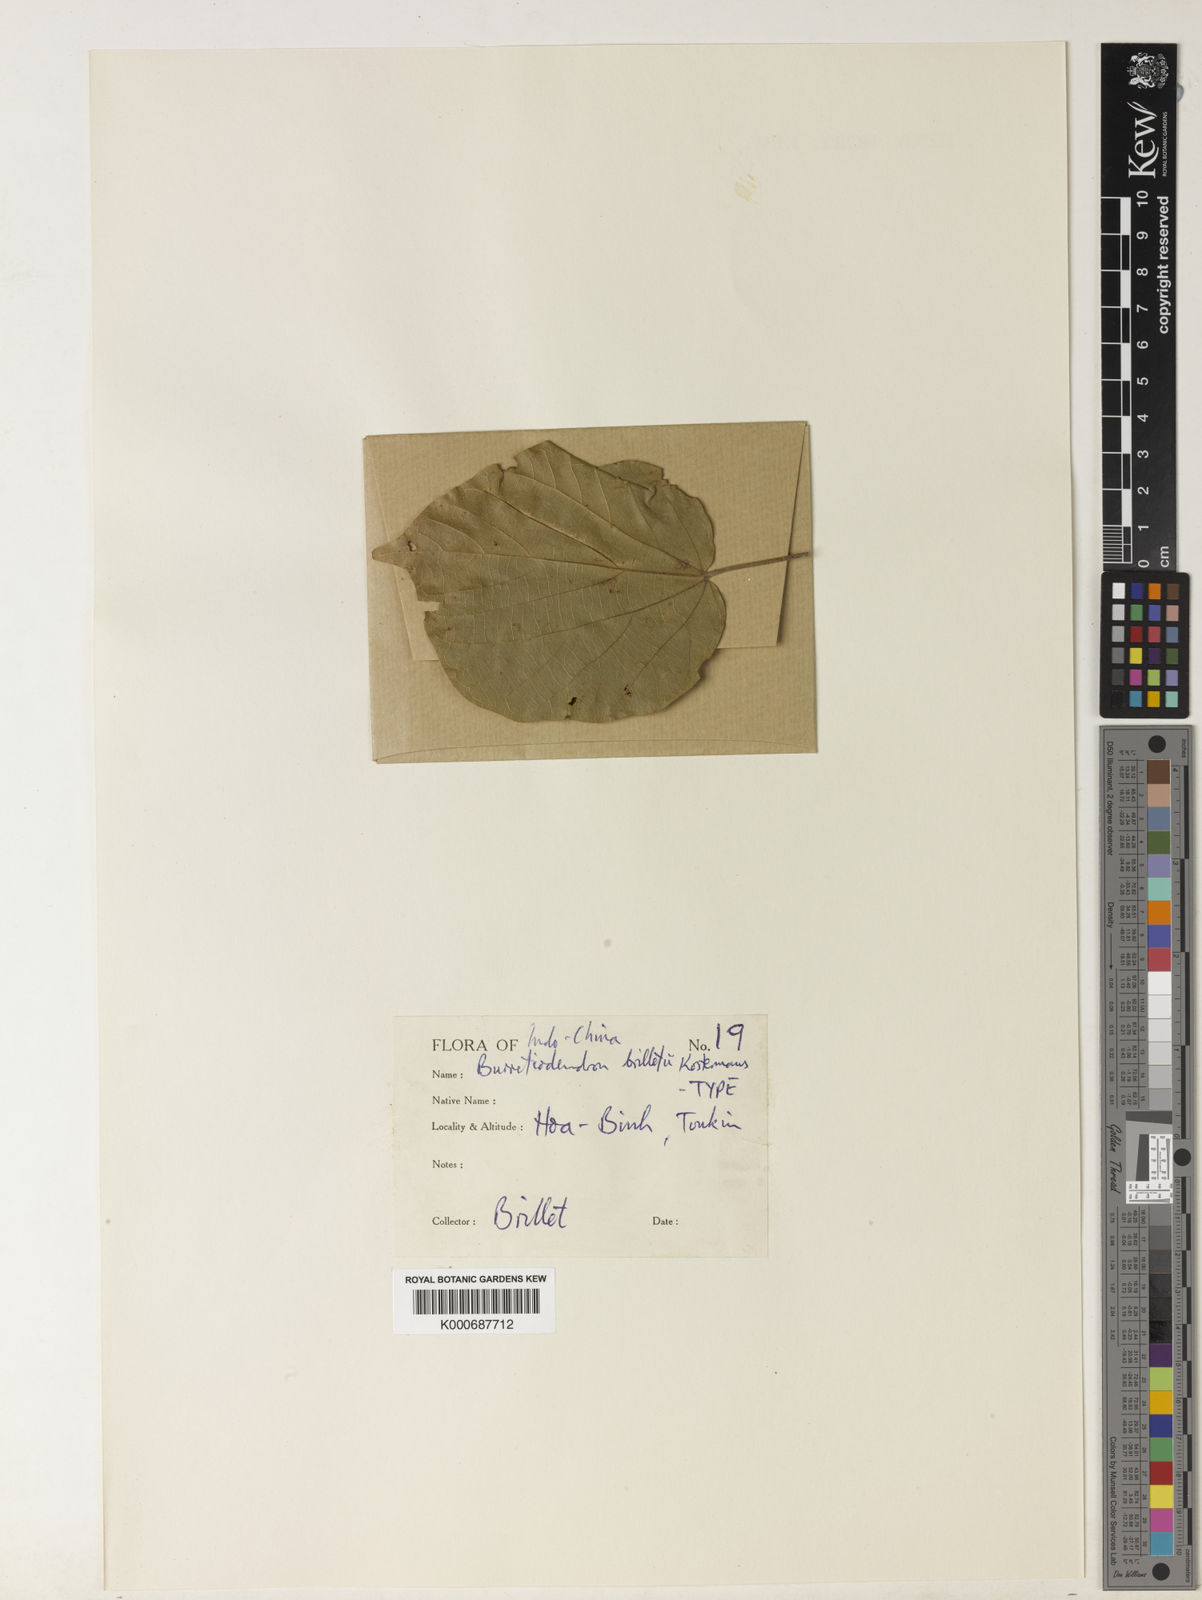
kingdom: Plantae
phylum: Tracheophyta
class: Magnoliopsida
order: Malvales
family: Malvaceae
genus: Burretiodendron
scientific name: Burretiodendron brilletii
